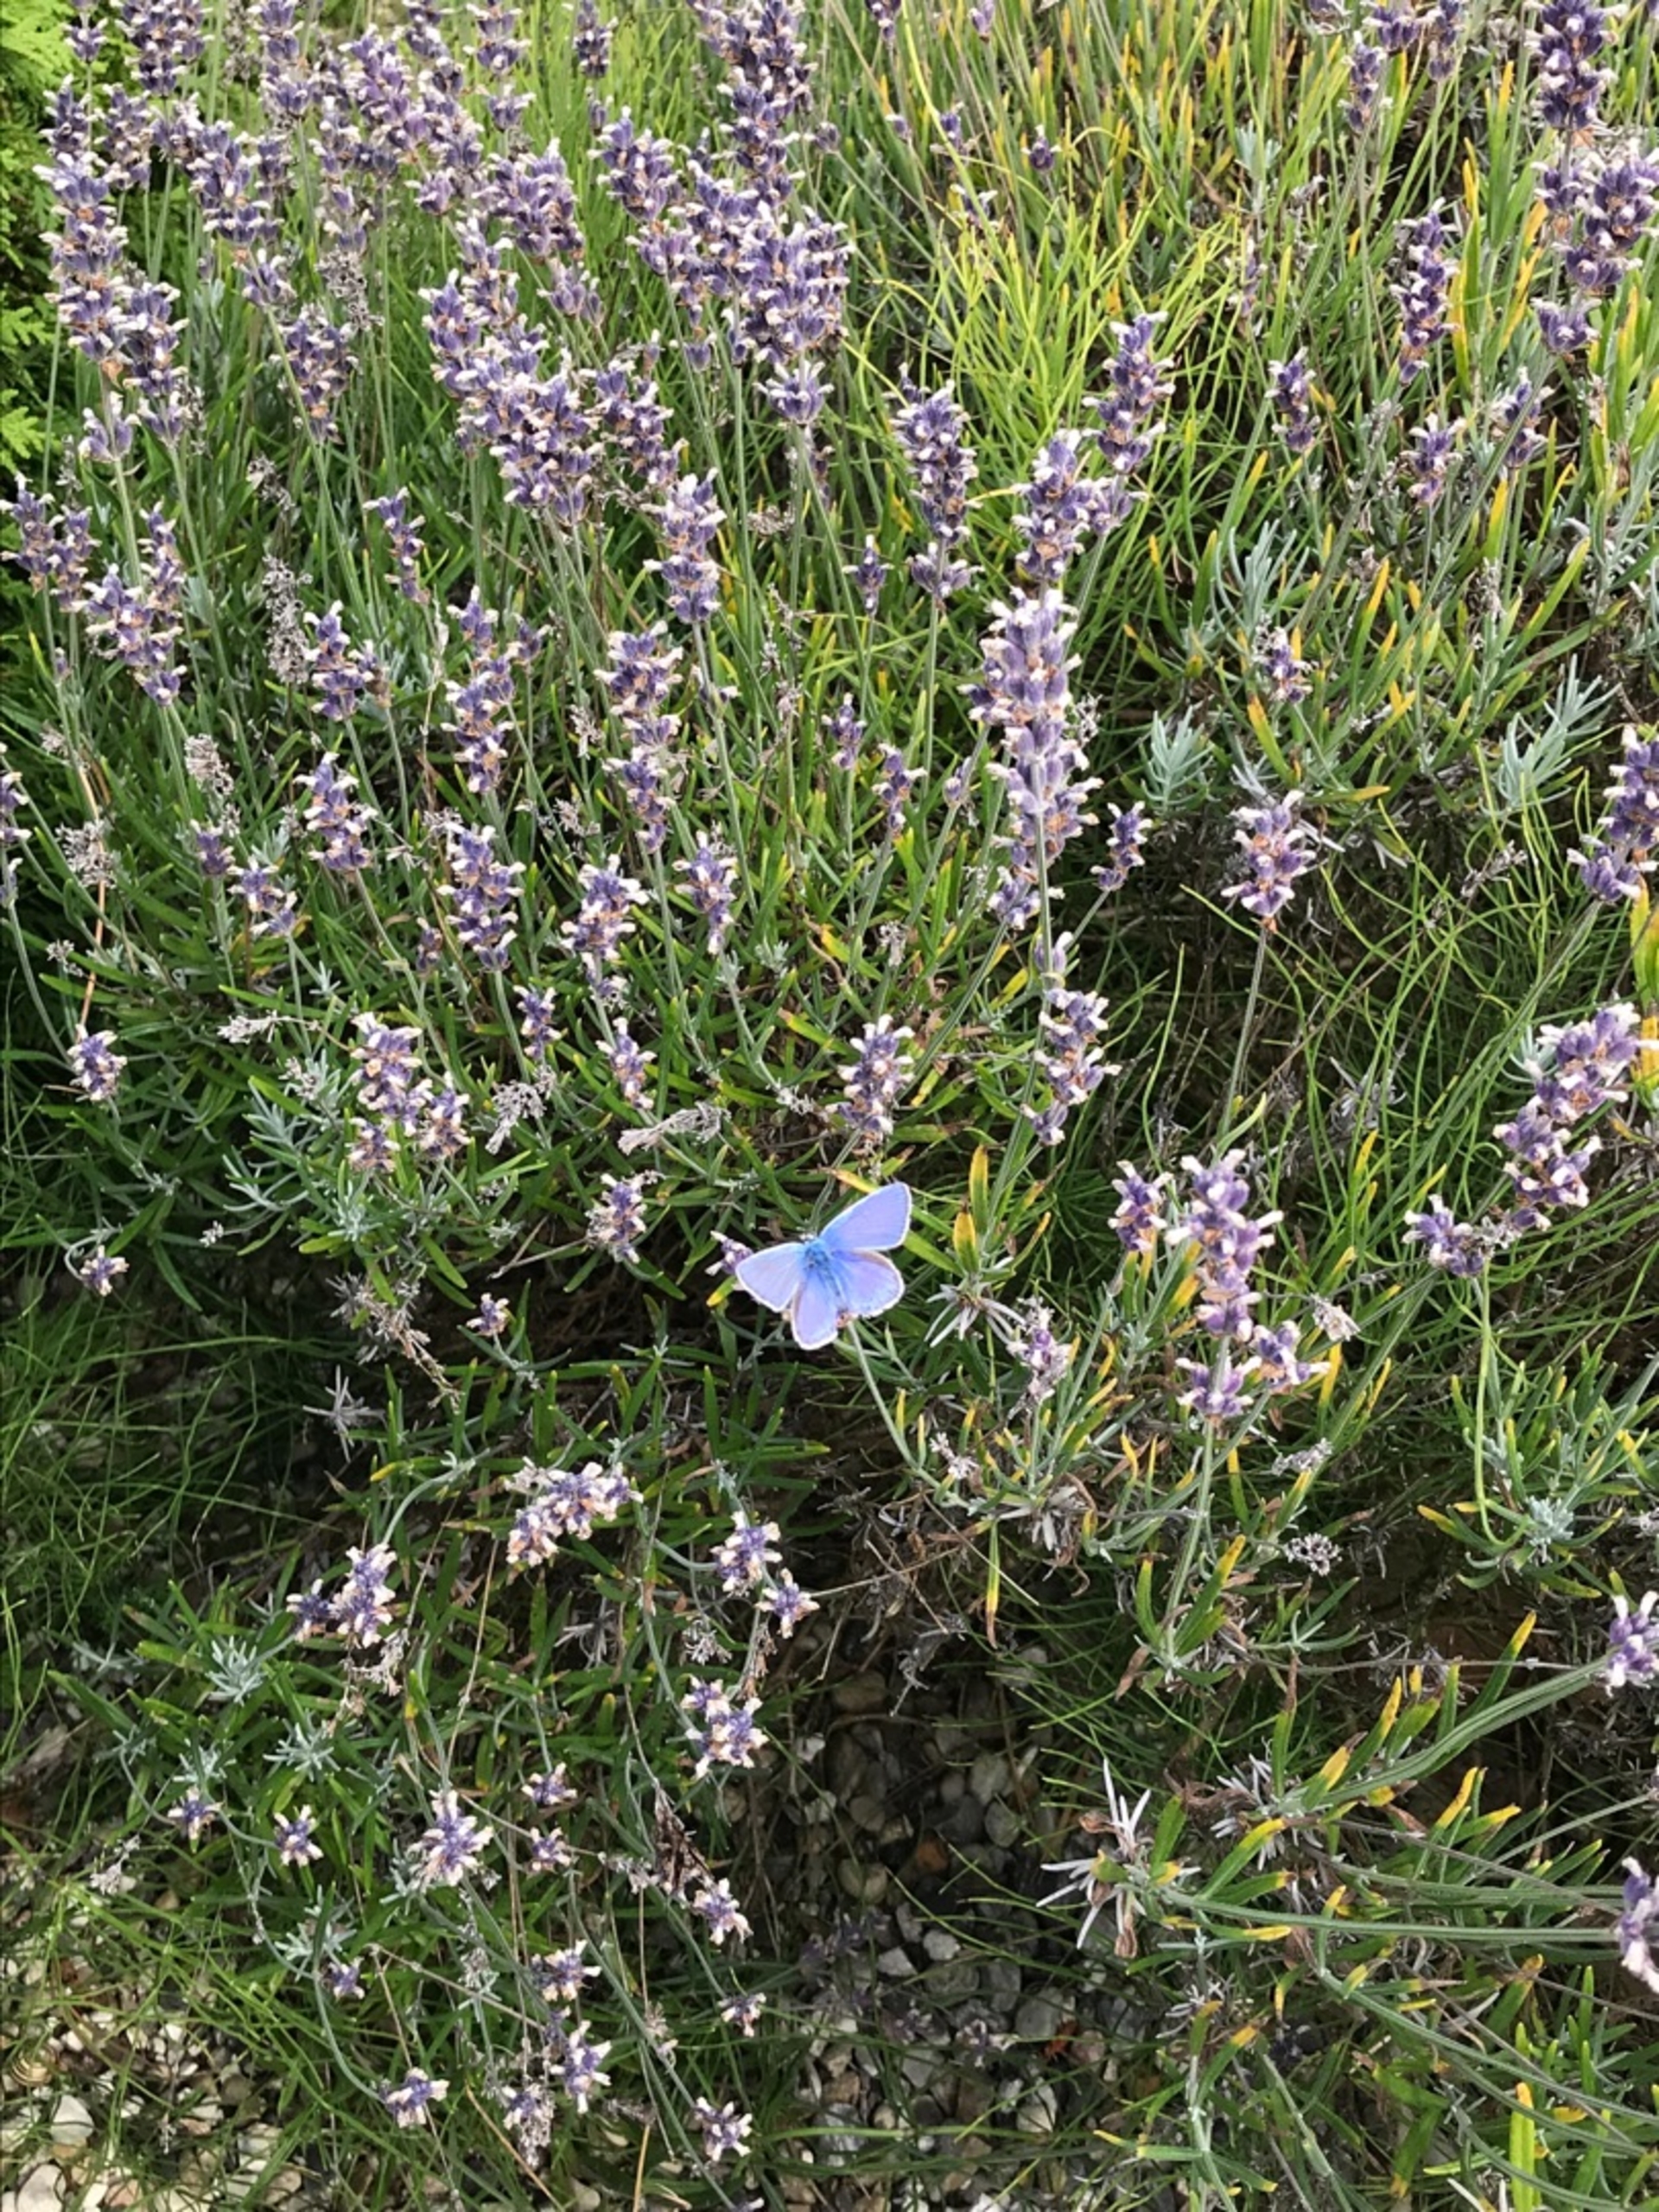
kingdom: Animalia
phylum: Arthropoda
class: Insecta
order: Lepidoptera
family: Lycaenidae
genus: Polyommatus
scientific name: Polyommatus icarus
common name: Almindelig blåfugl
